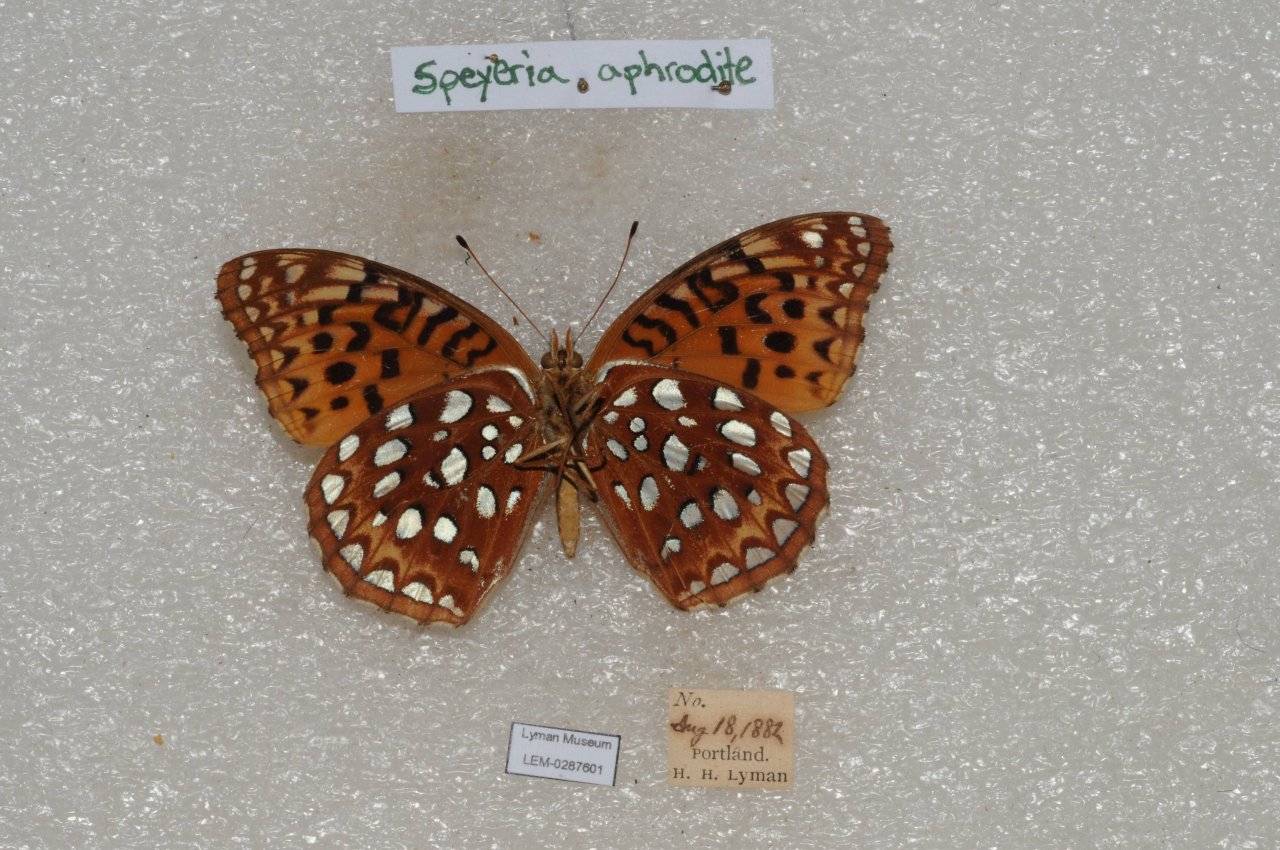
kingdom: Animalia
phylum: Arthropoda
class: Insecta
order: Lepidoptera
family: Nymphalidae
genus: Speyeria
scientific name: Speyeria aphrodite
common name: Aphrodite Fritillary
